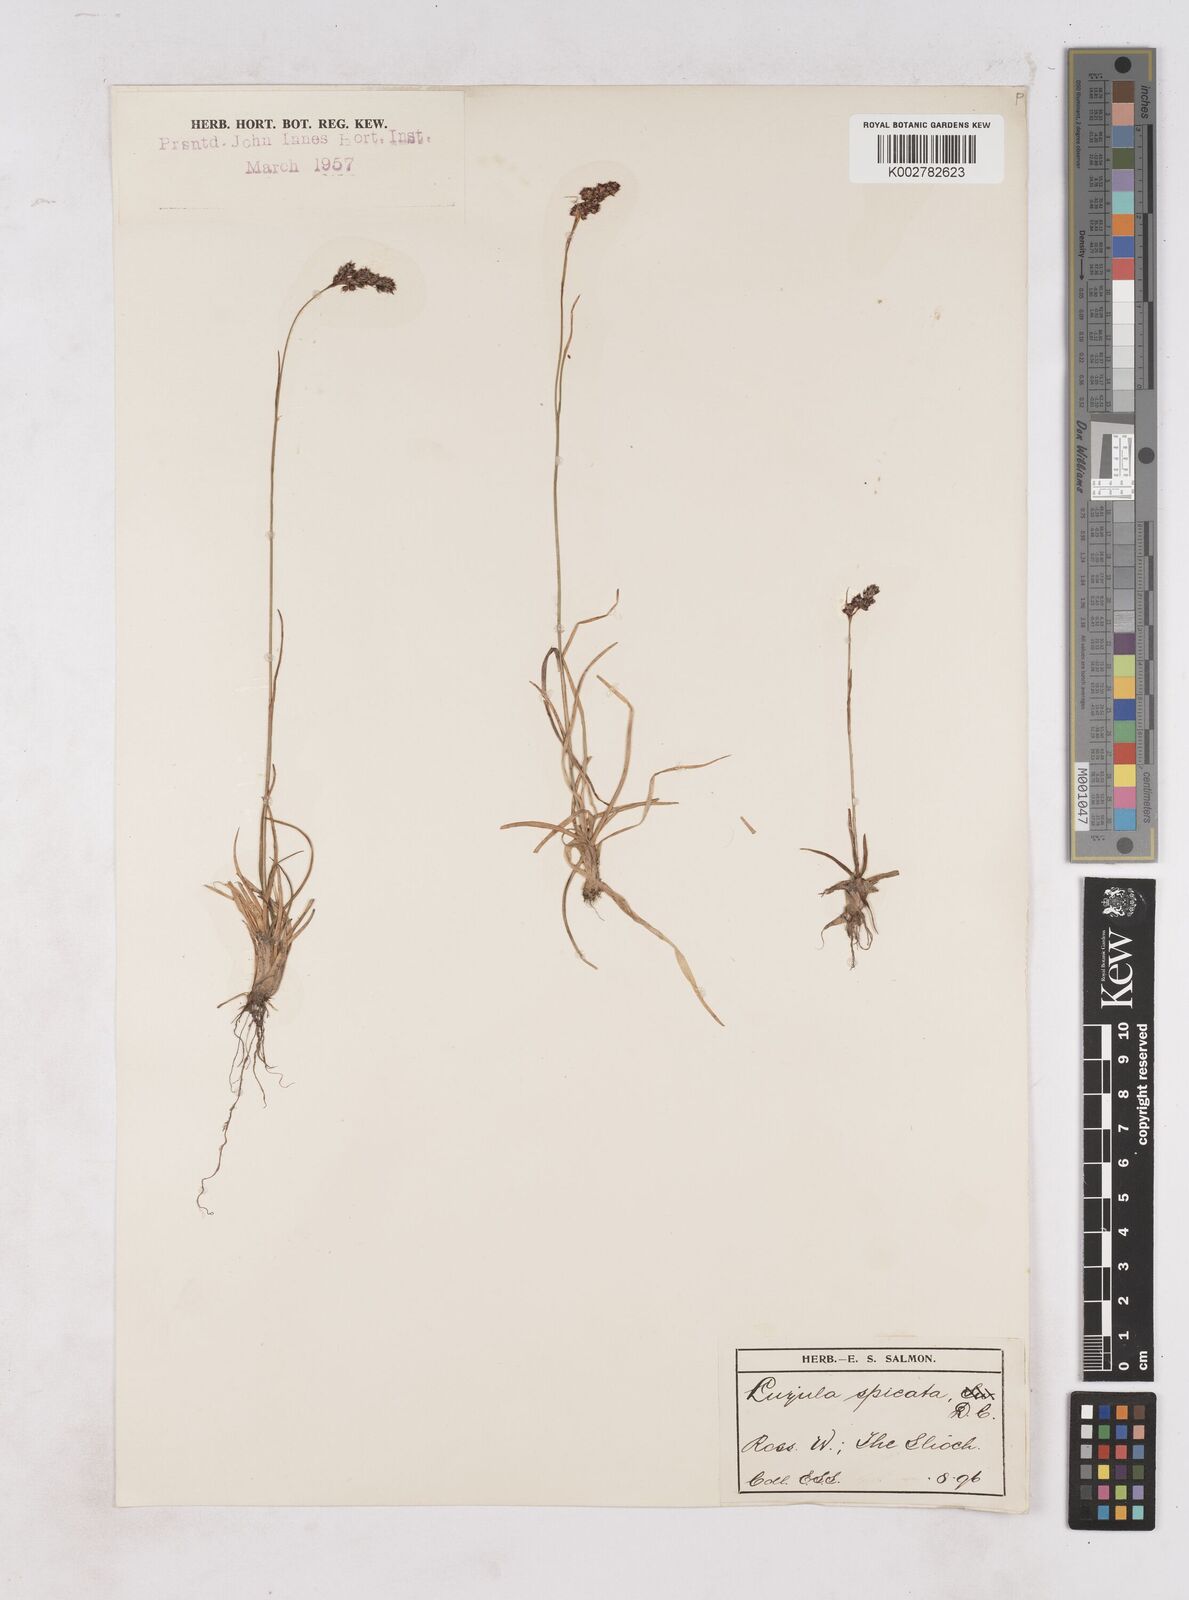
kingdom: Plantae
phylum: Tracheophyta
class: Liliopsida
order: Poales
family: Juncaceae
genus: Luzula
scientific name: Luzula spicata
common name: Spiked wood-rush
